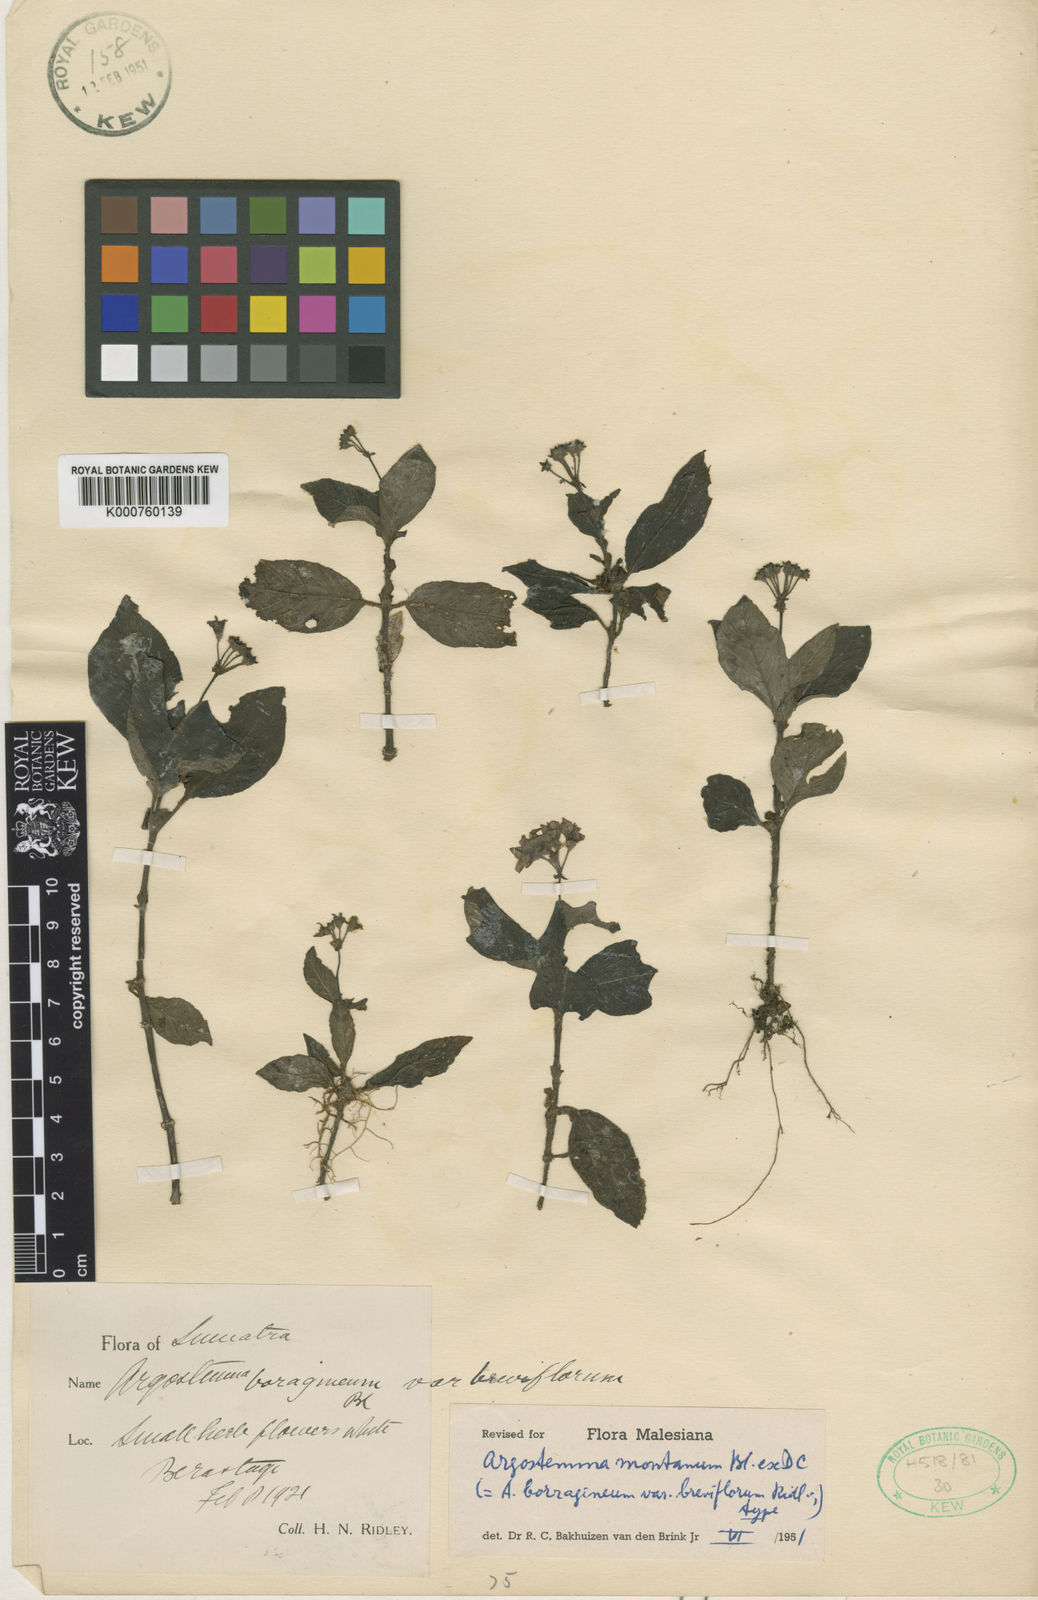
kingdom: Plantae
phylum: Tracheophyta
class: Magnoliopsida
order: Gentianales
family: Rubiaceae
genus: Argostemma
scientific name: Argostemma montanum
